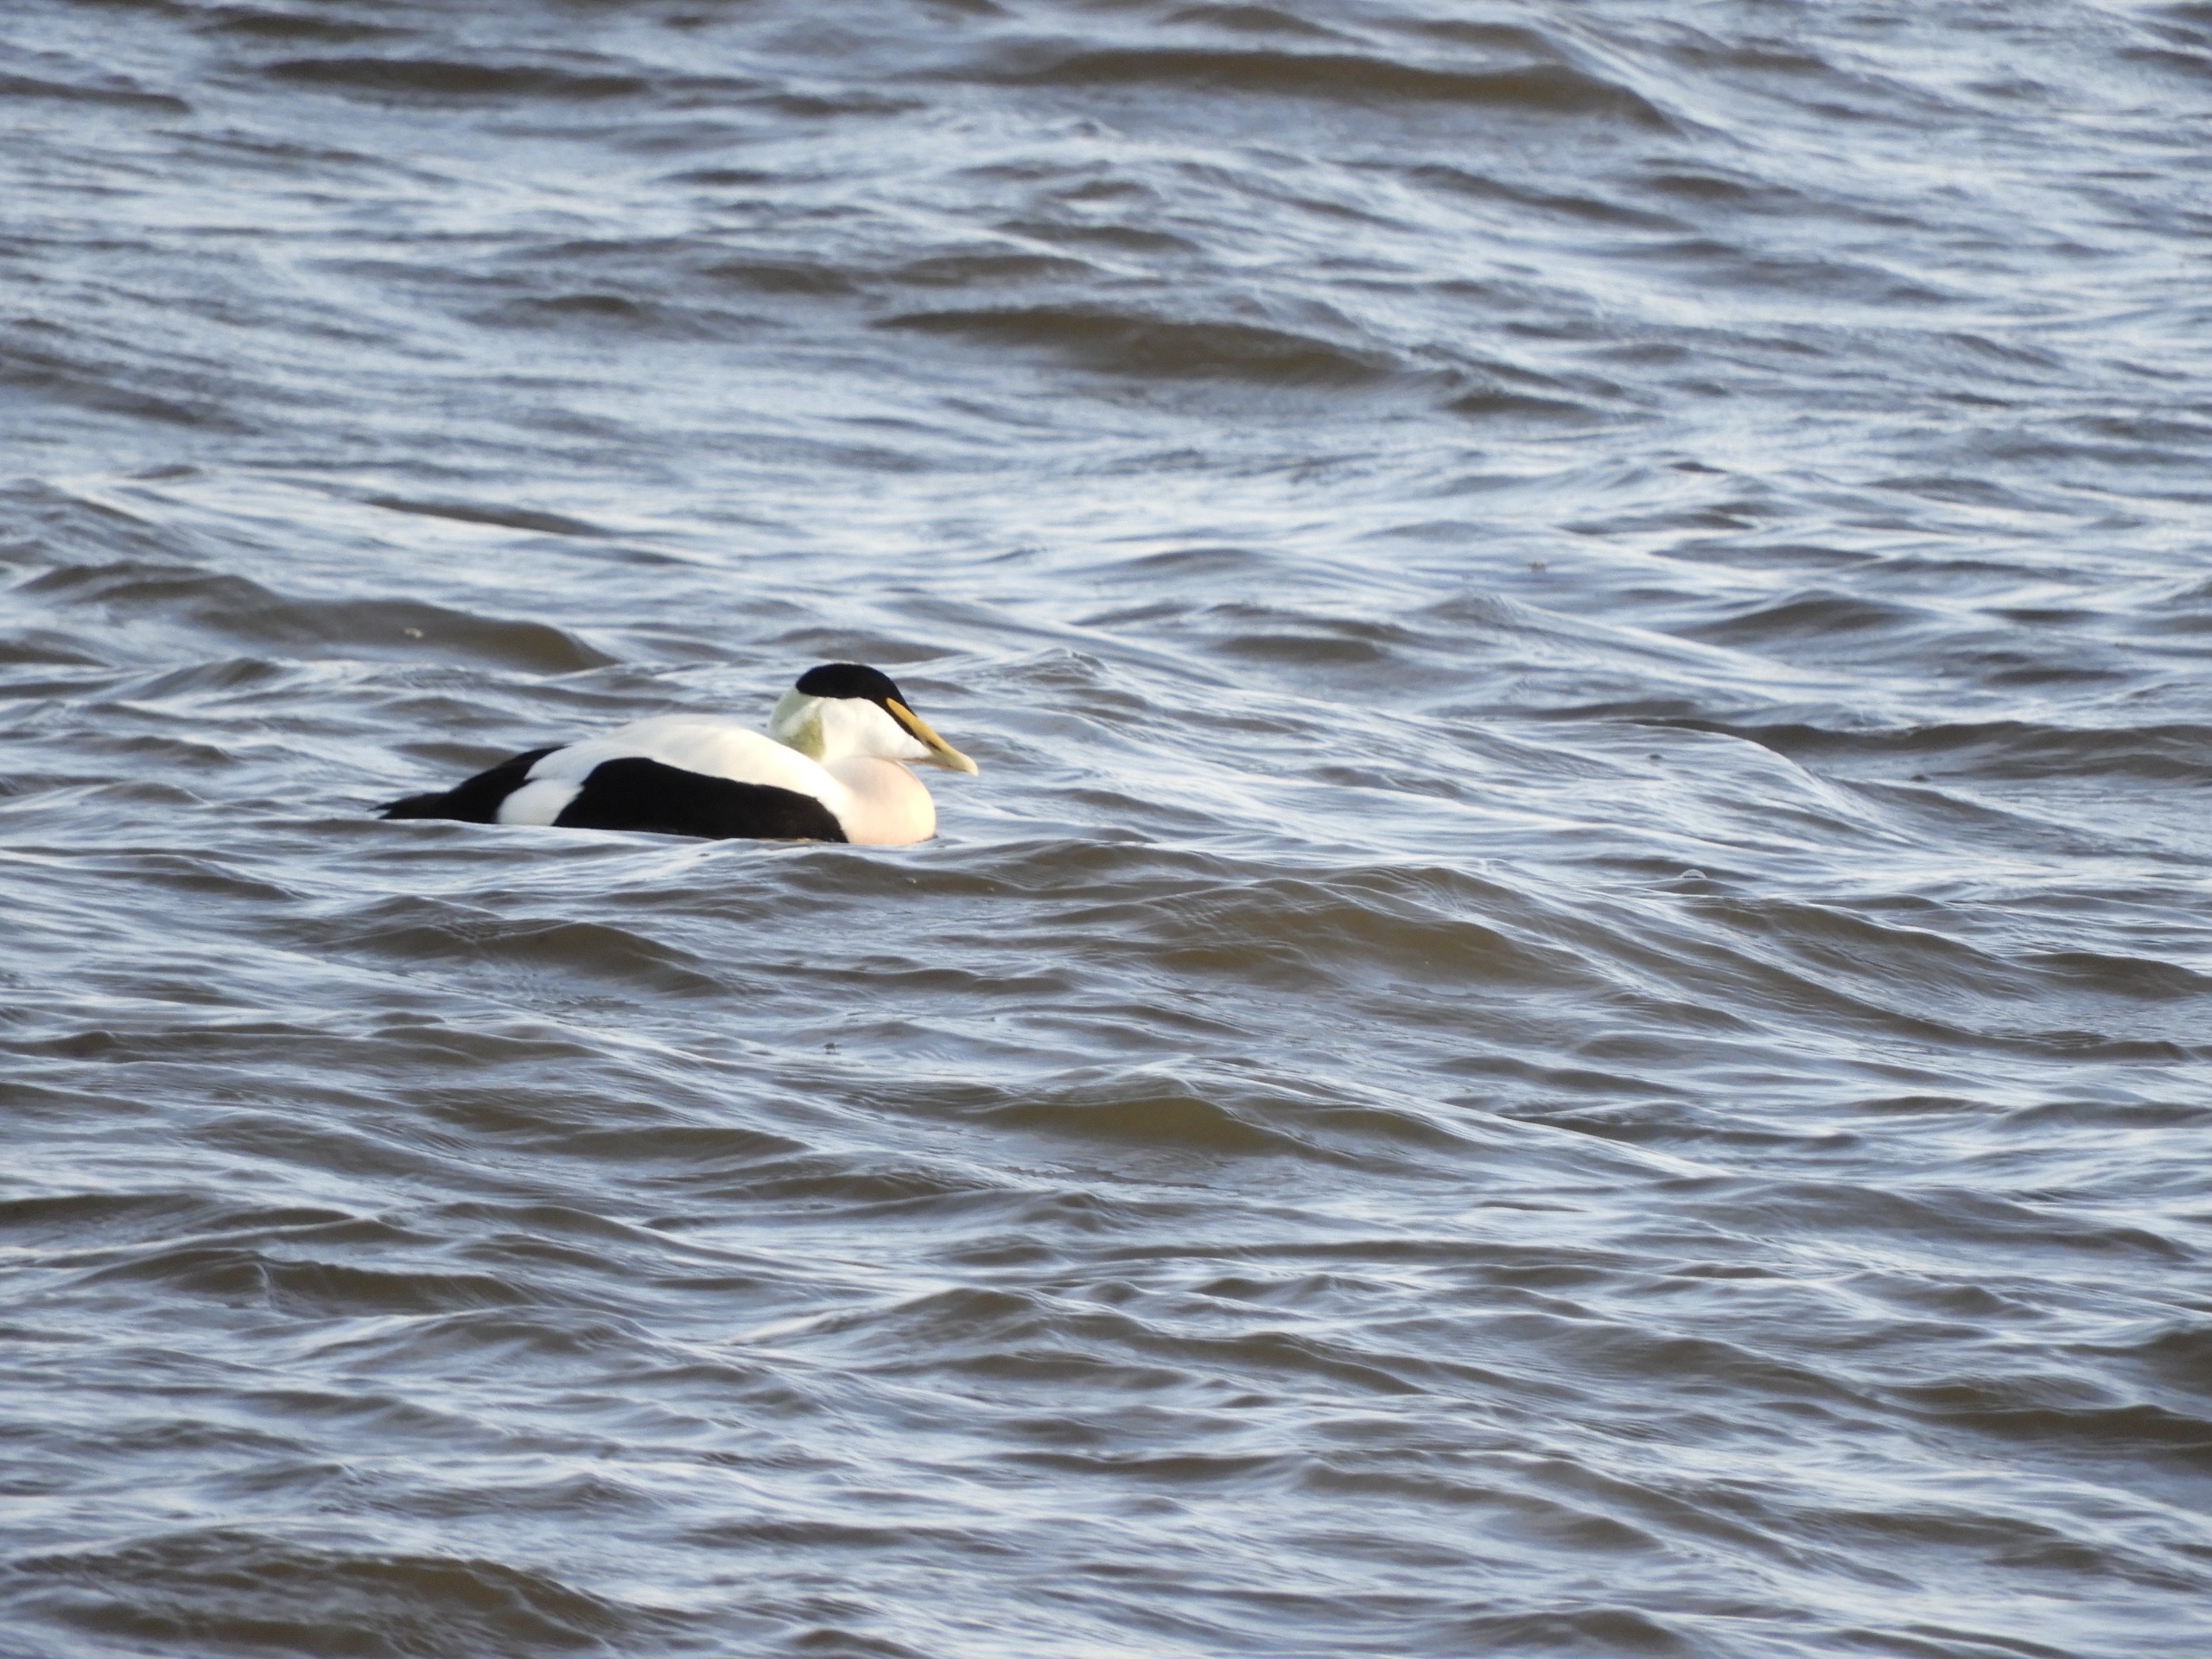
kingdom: Animalia
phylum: Chordata
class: Aves
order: Anseriformes
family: Anatidae
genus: Somateria
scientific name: Somateria mollissima
